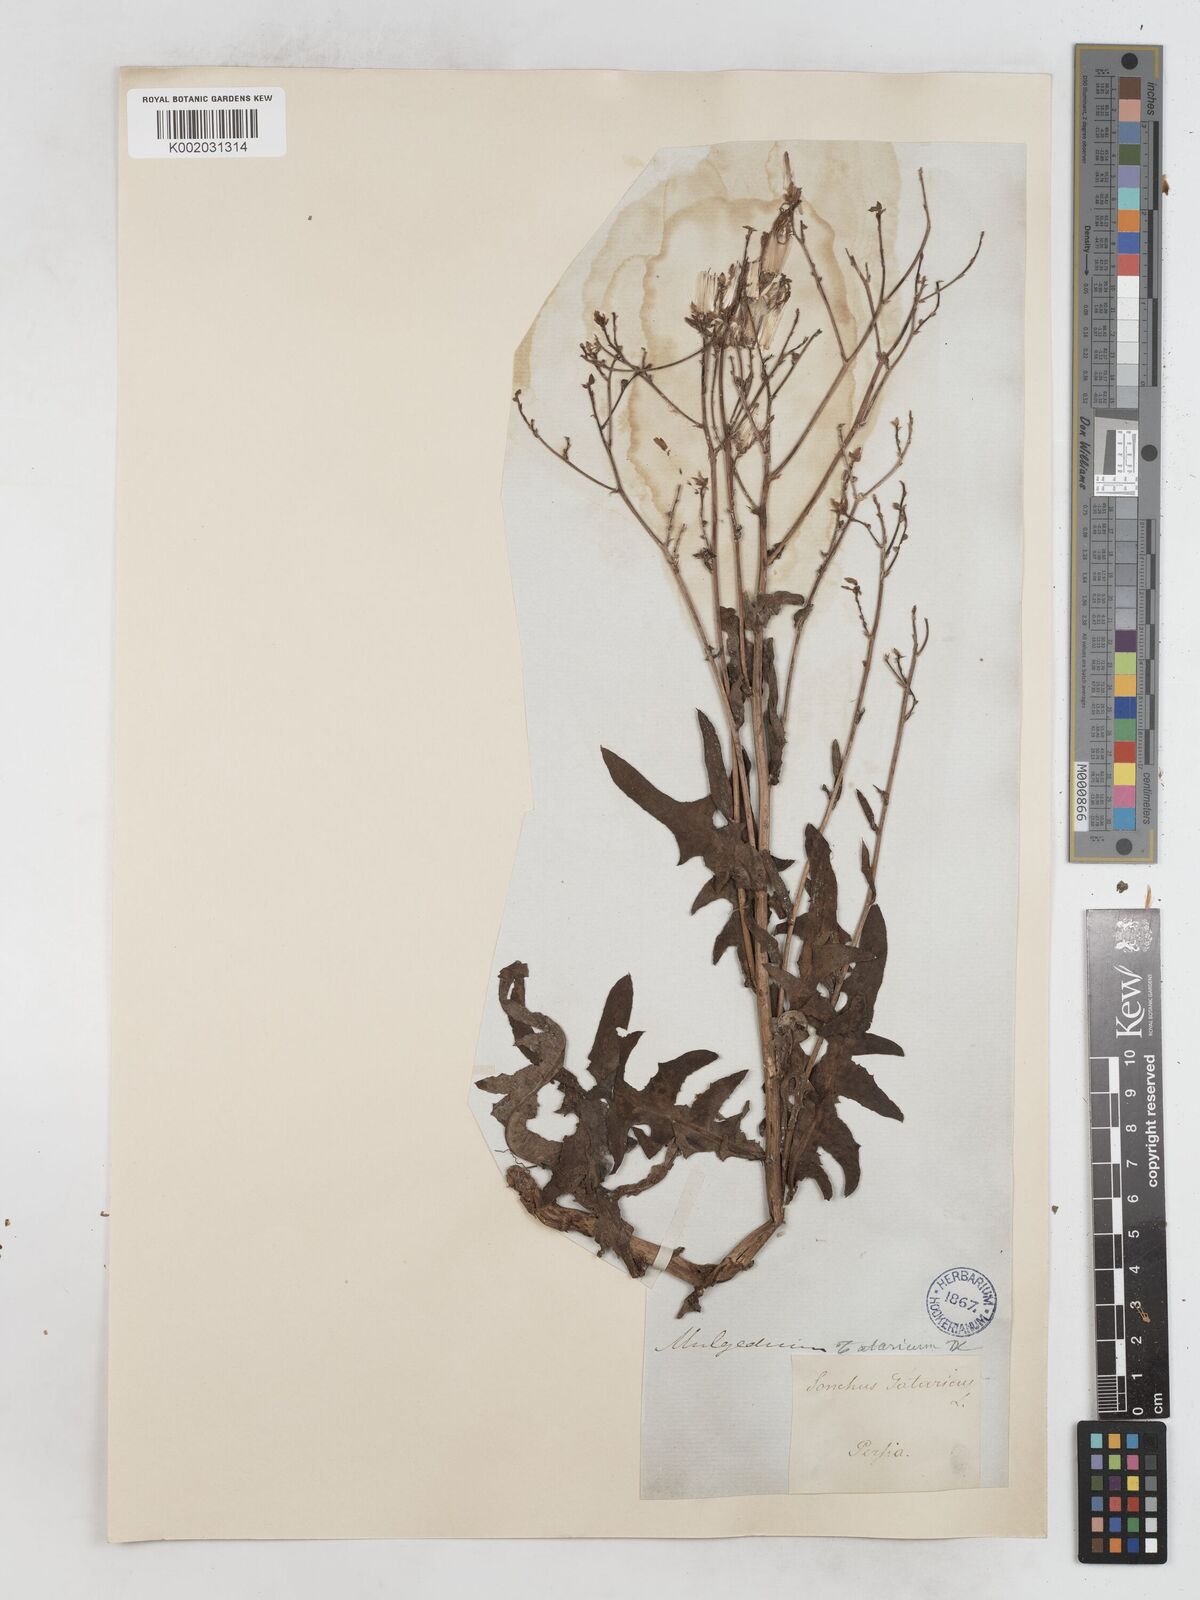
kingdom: Plantae
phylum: Tracheophyta
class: Magnoliopsida
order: Asterales
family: Asteraceae
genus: Lactuca
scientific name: Lactuca tatarica
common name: Blue lettuce
